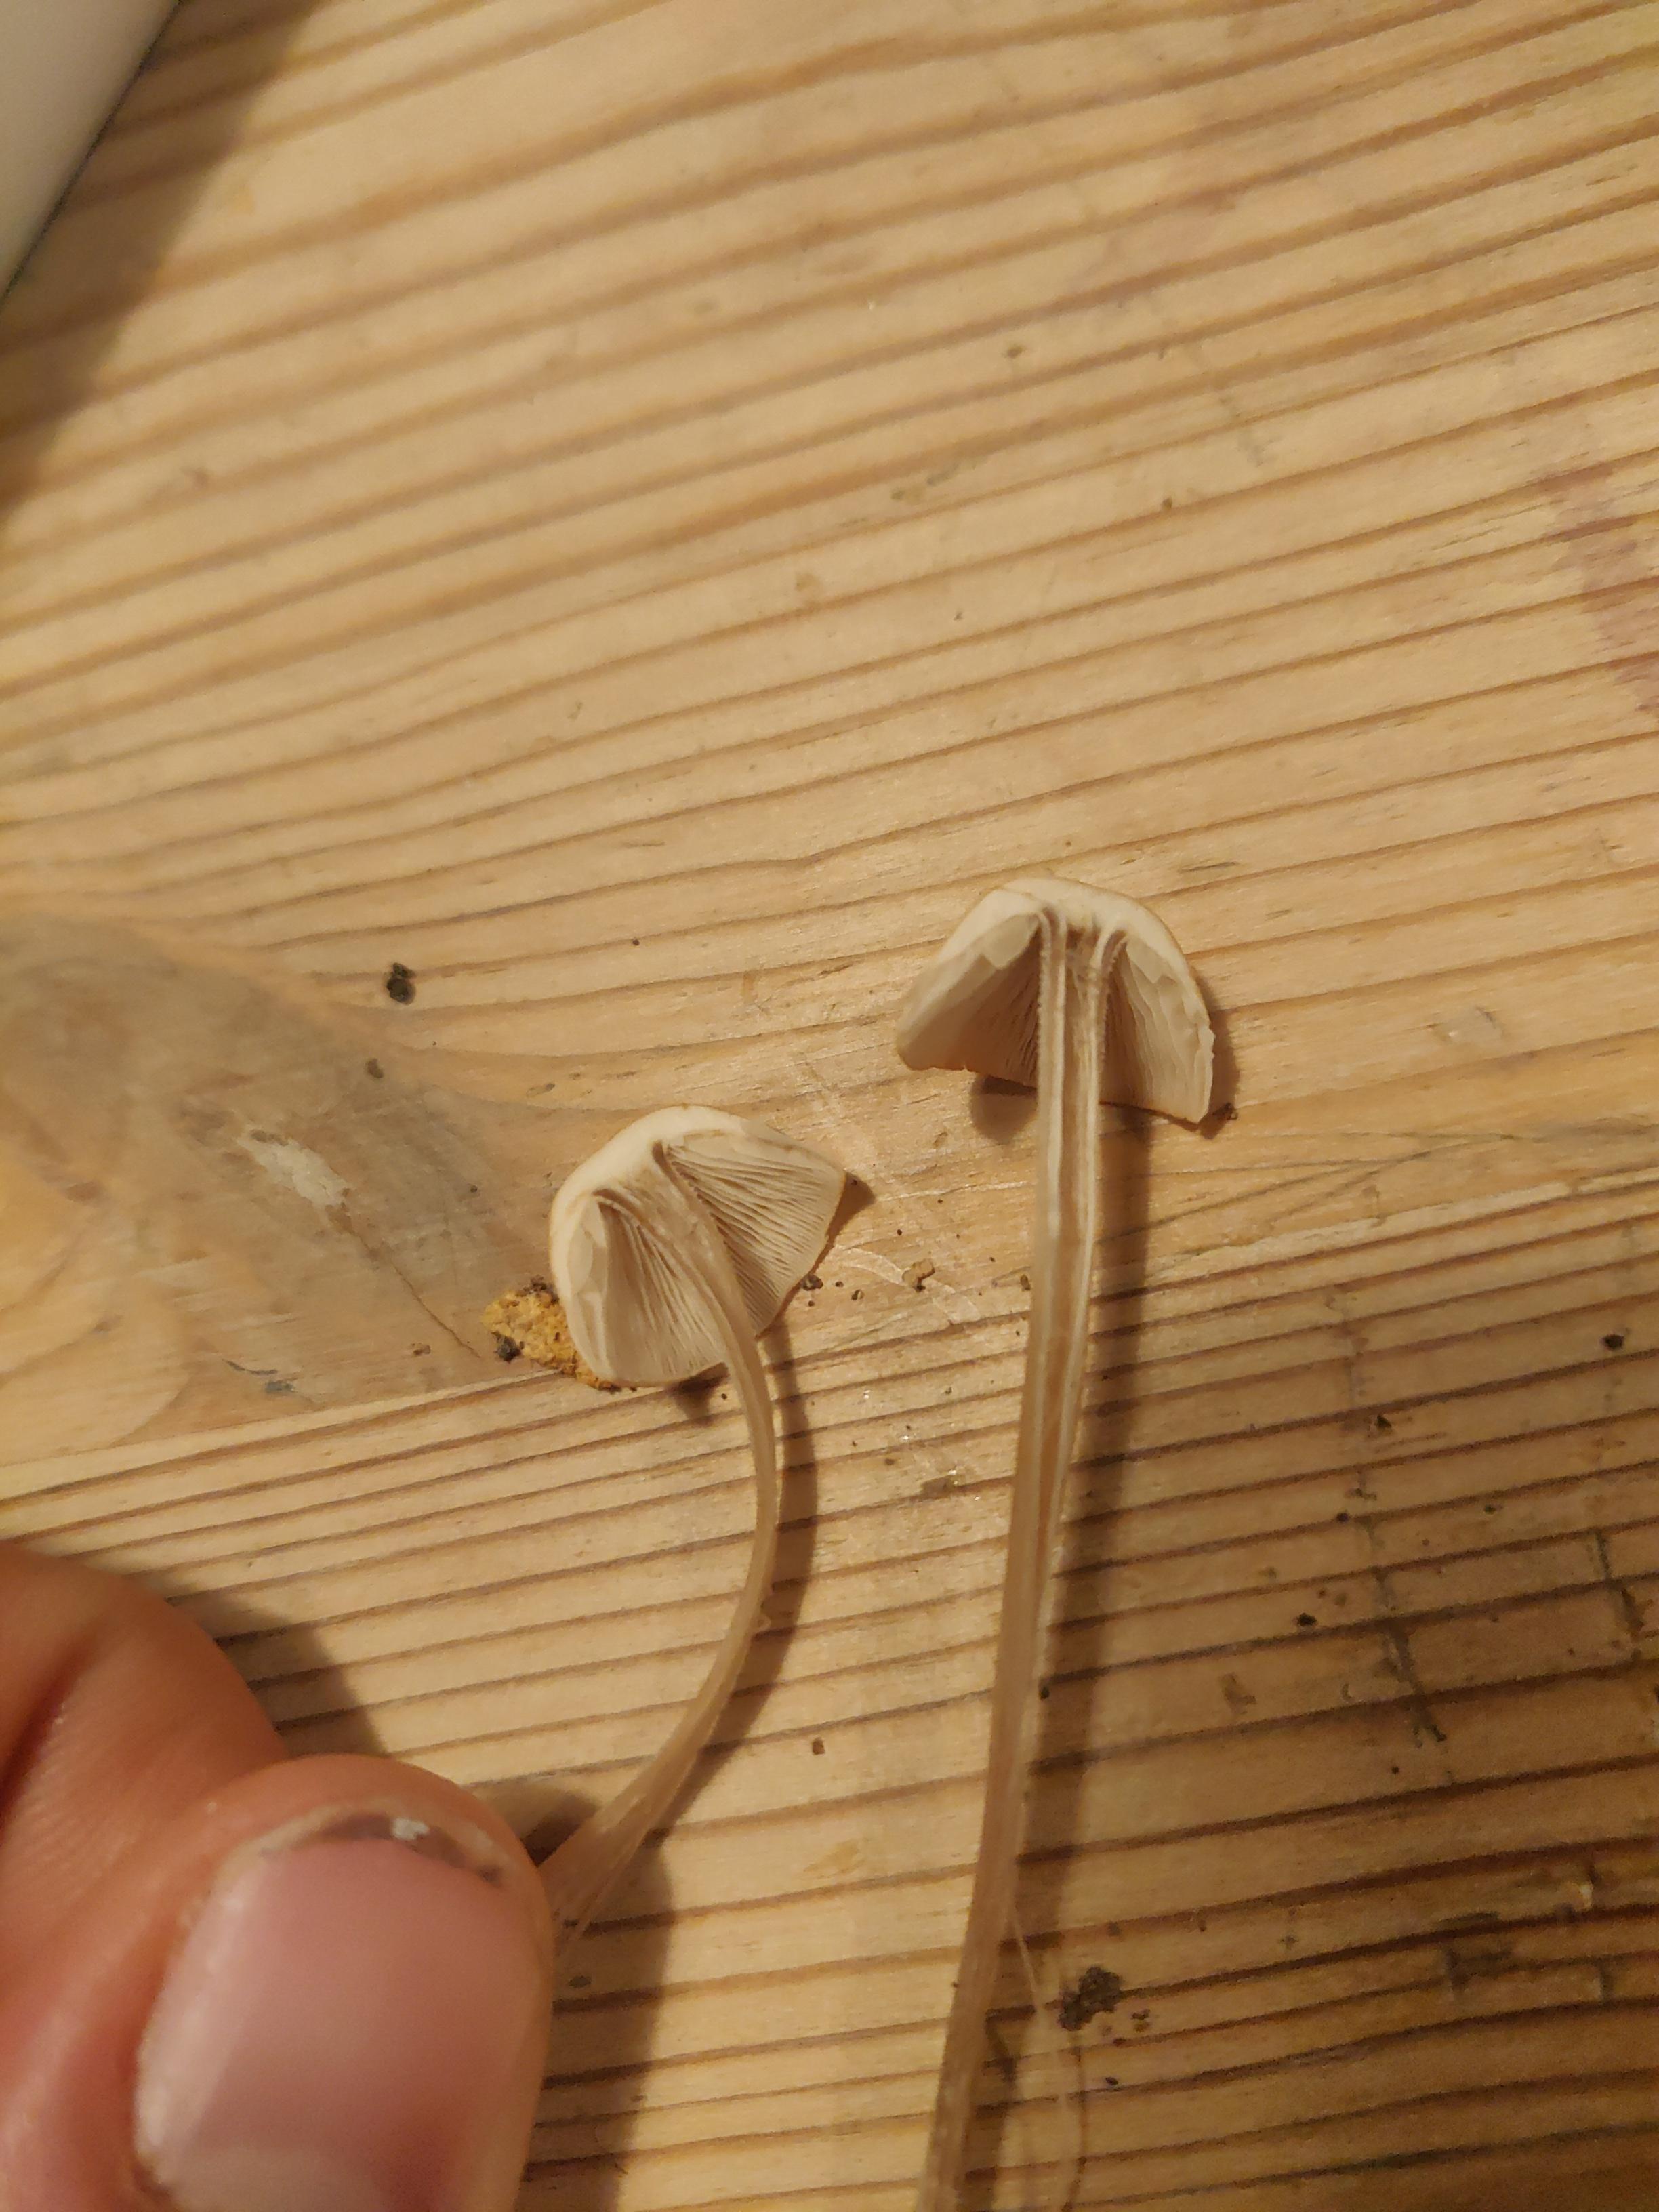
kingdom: Fungi
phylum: Basidiomycota
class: Agaricomycetes
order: Agaricales
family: Omphalotaceae
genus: Collybiopsis
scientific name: Collybiopsis confluens
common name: knippe-fladhat
